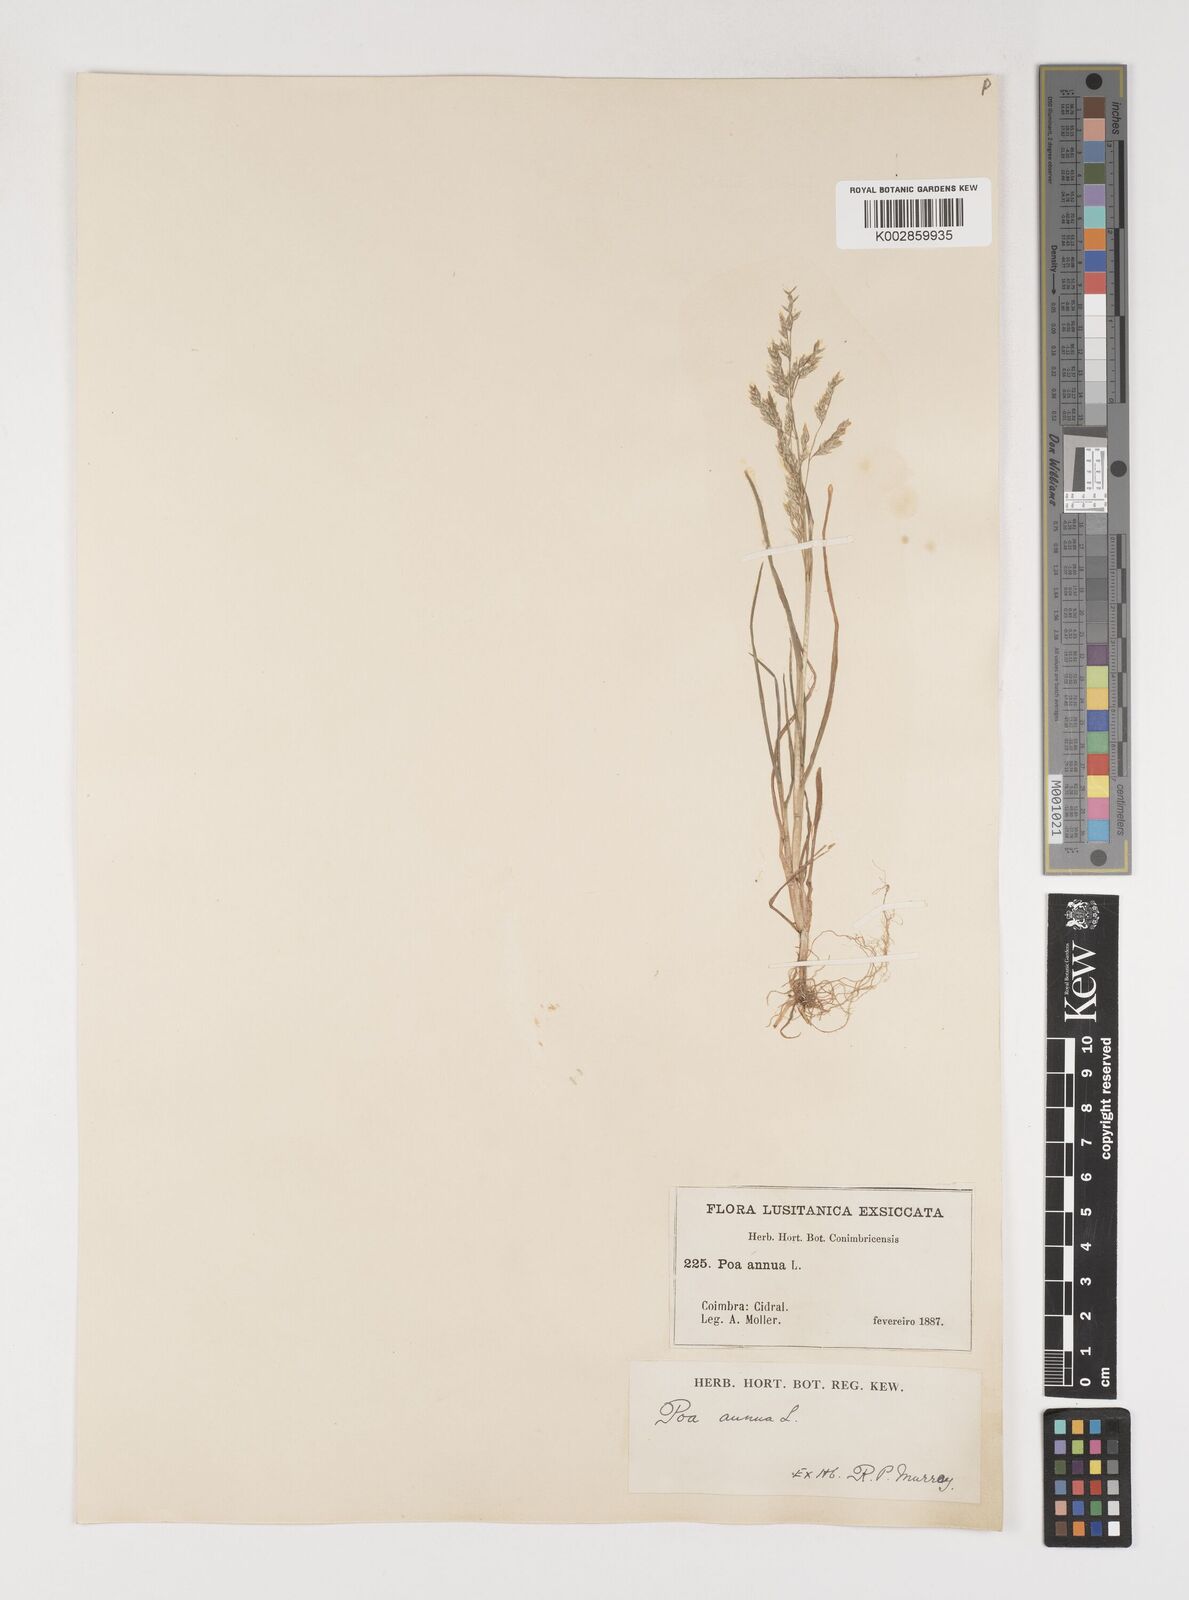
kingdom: Plantae
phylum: Tracheophyta
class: Liliopsida
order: Poales
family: Poaceae
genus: Poa
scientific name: Poa annua
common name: Annual bluegrass
